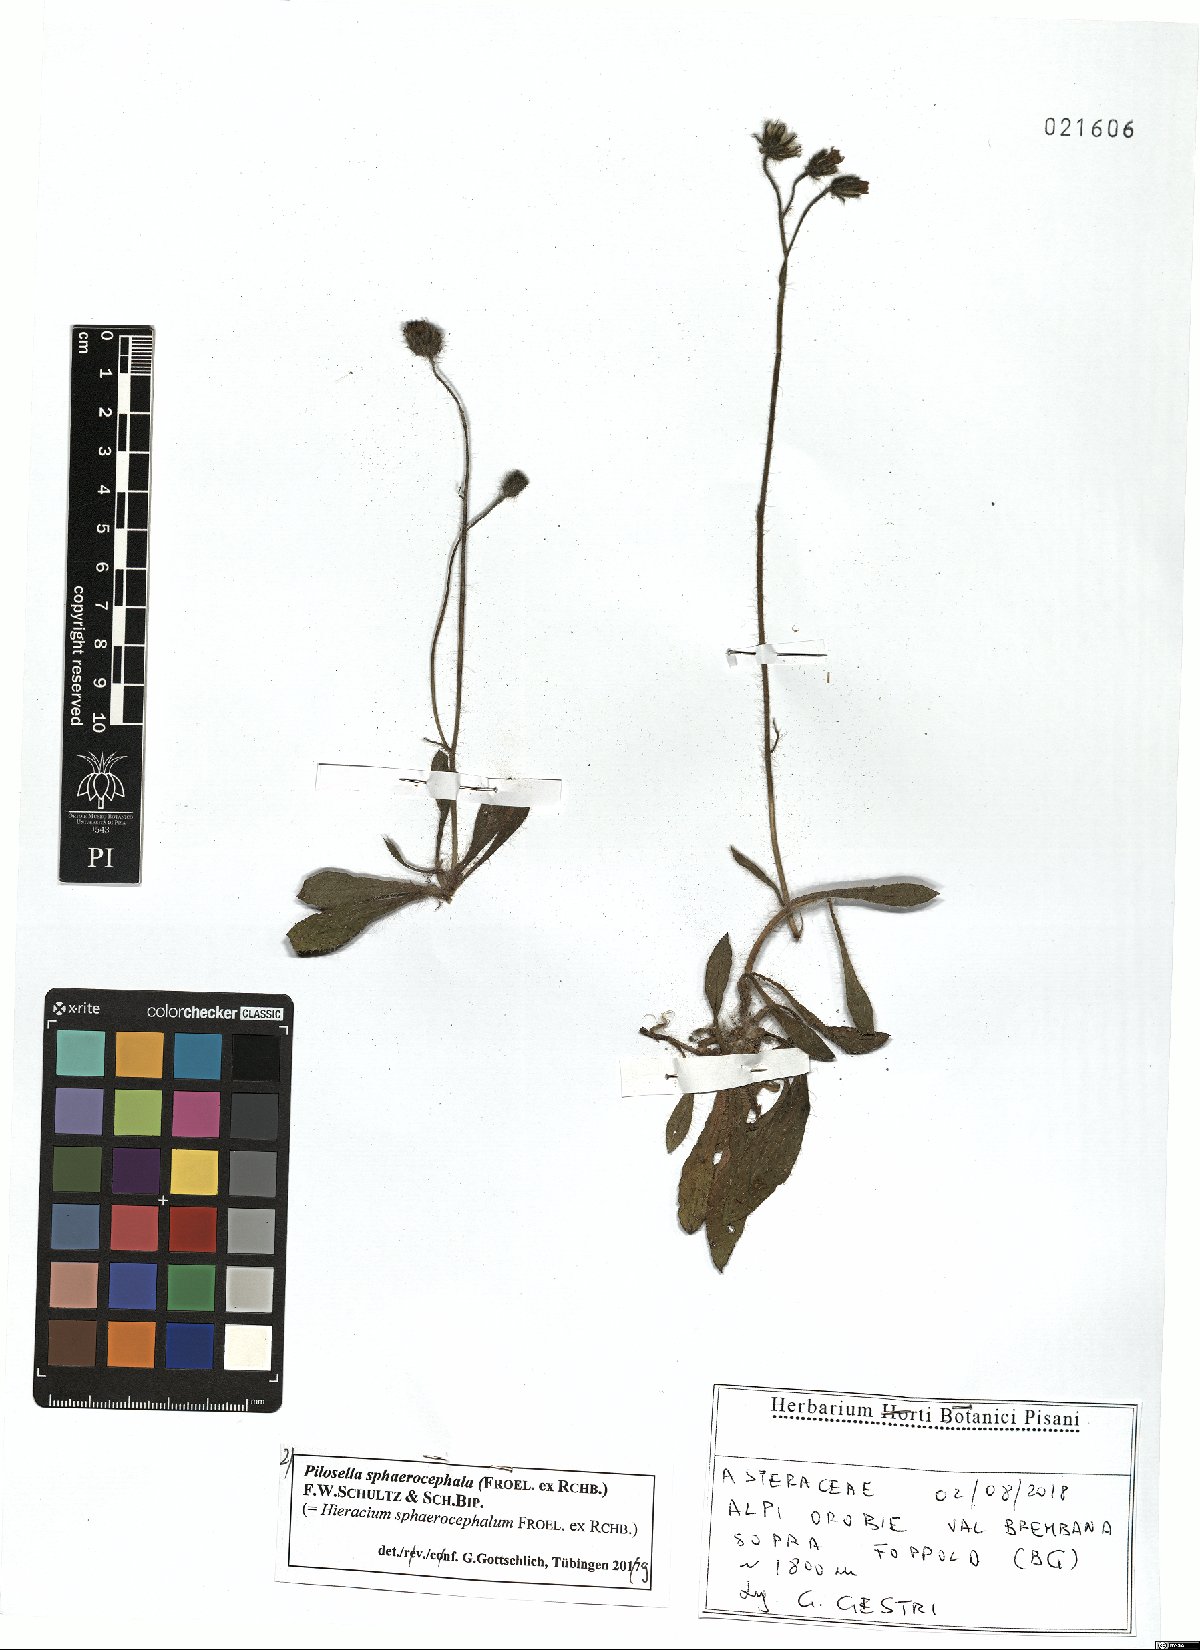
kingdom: Plantae
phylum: Tracheophyta
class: Magnoliopsida
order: Asterales
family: Asteraceae
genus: Pilosella
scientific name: Pilosella sphaerocephala
